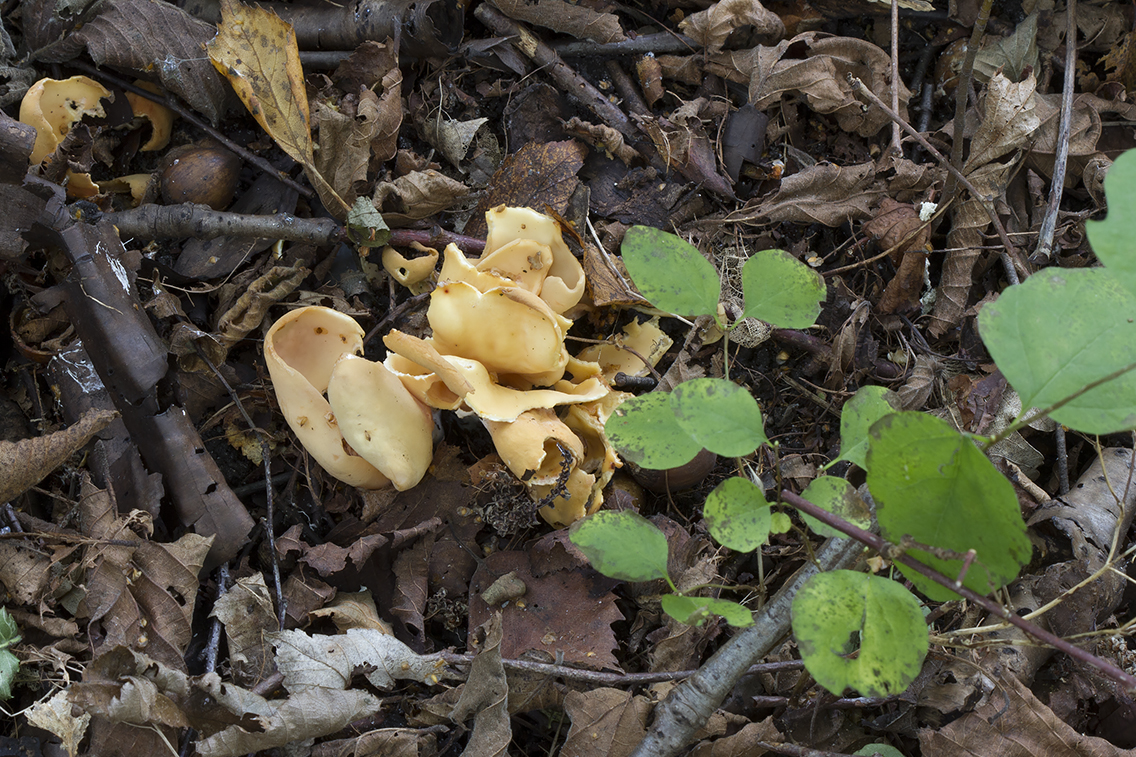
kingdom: Fungi
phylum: Ascomycota
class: Pezizomycetes
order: Pezizales
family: Otideaceae
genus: Otidea
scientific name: Otidea onotica
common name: æsel-ørebæger
